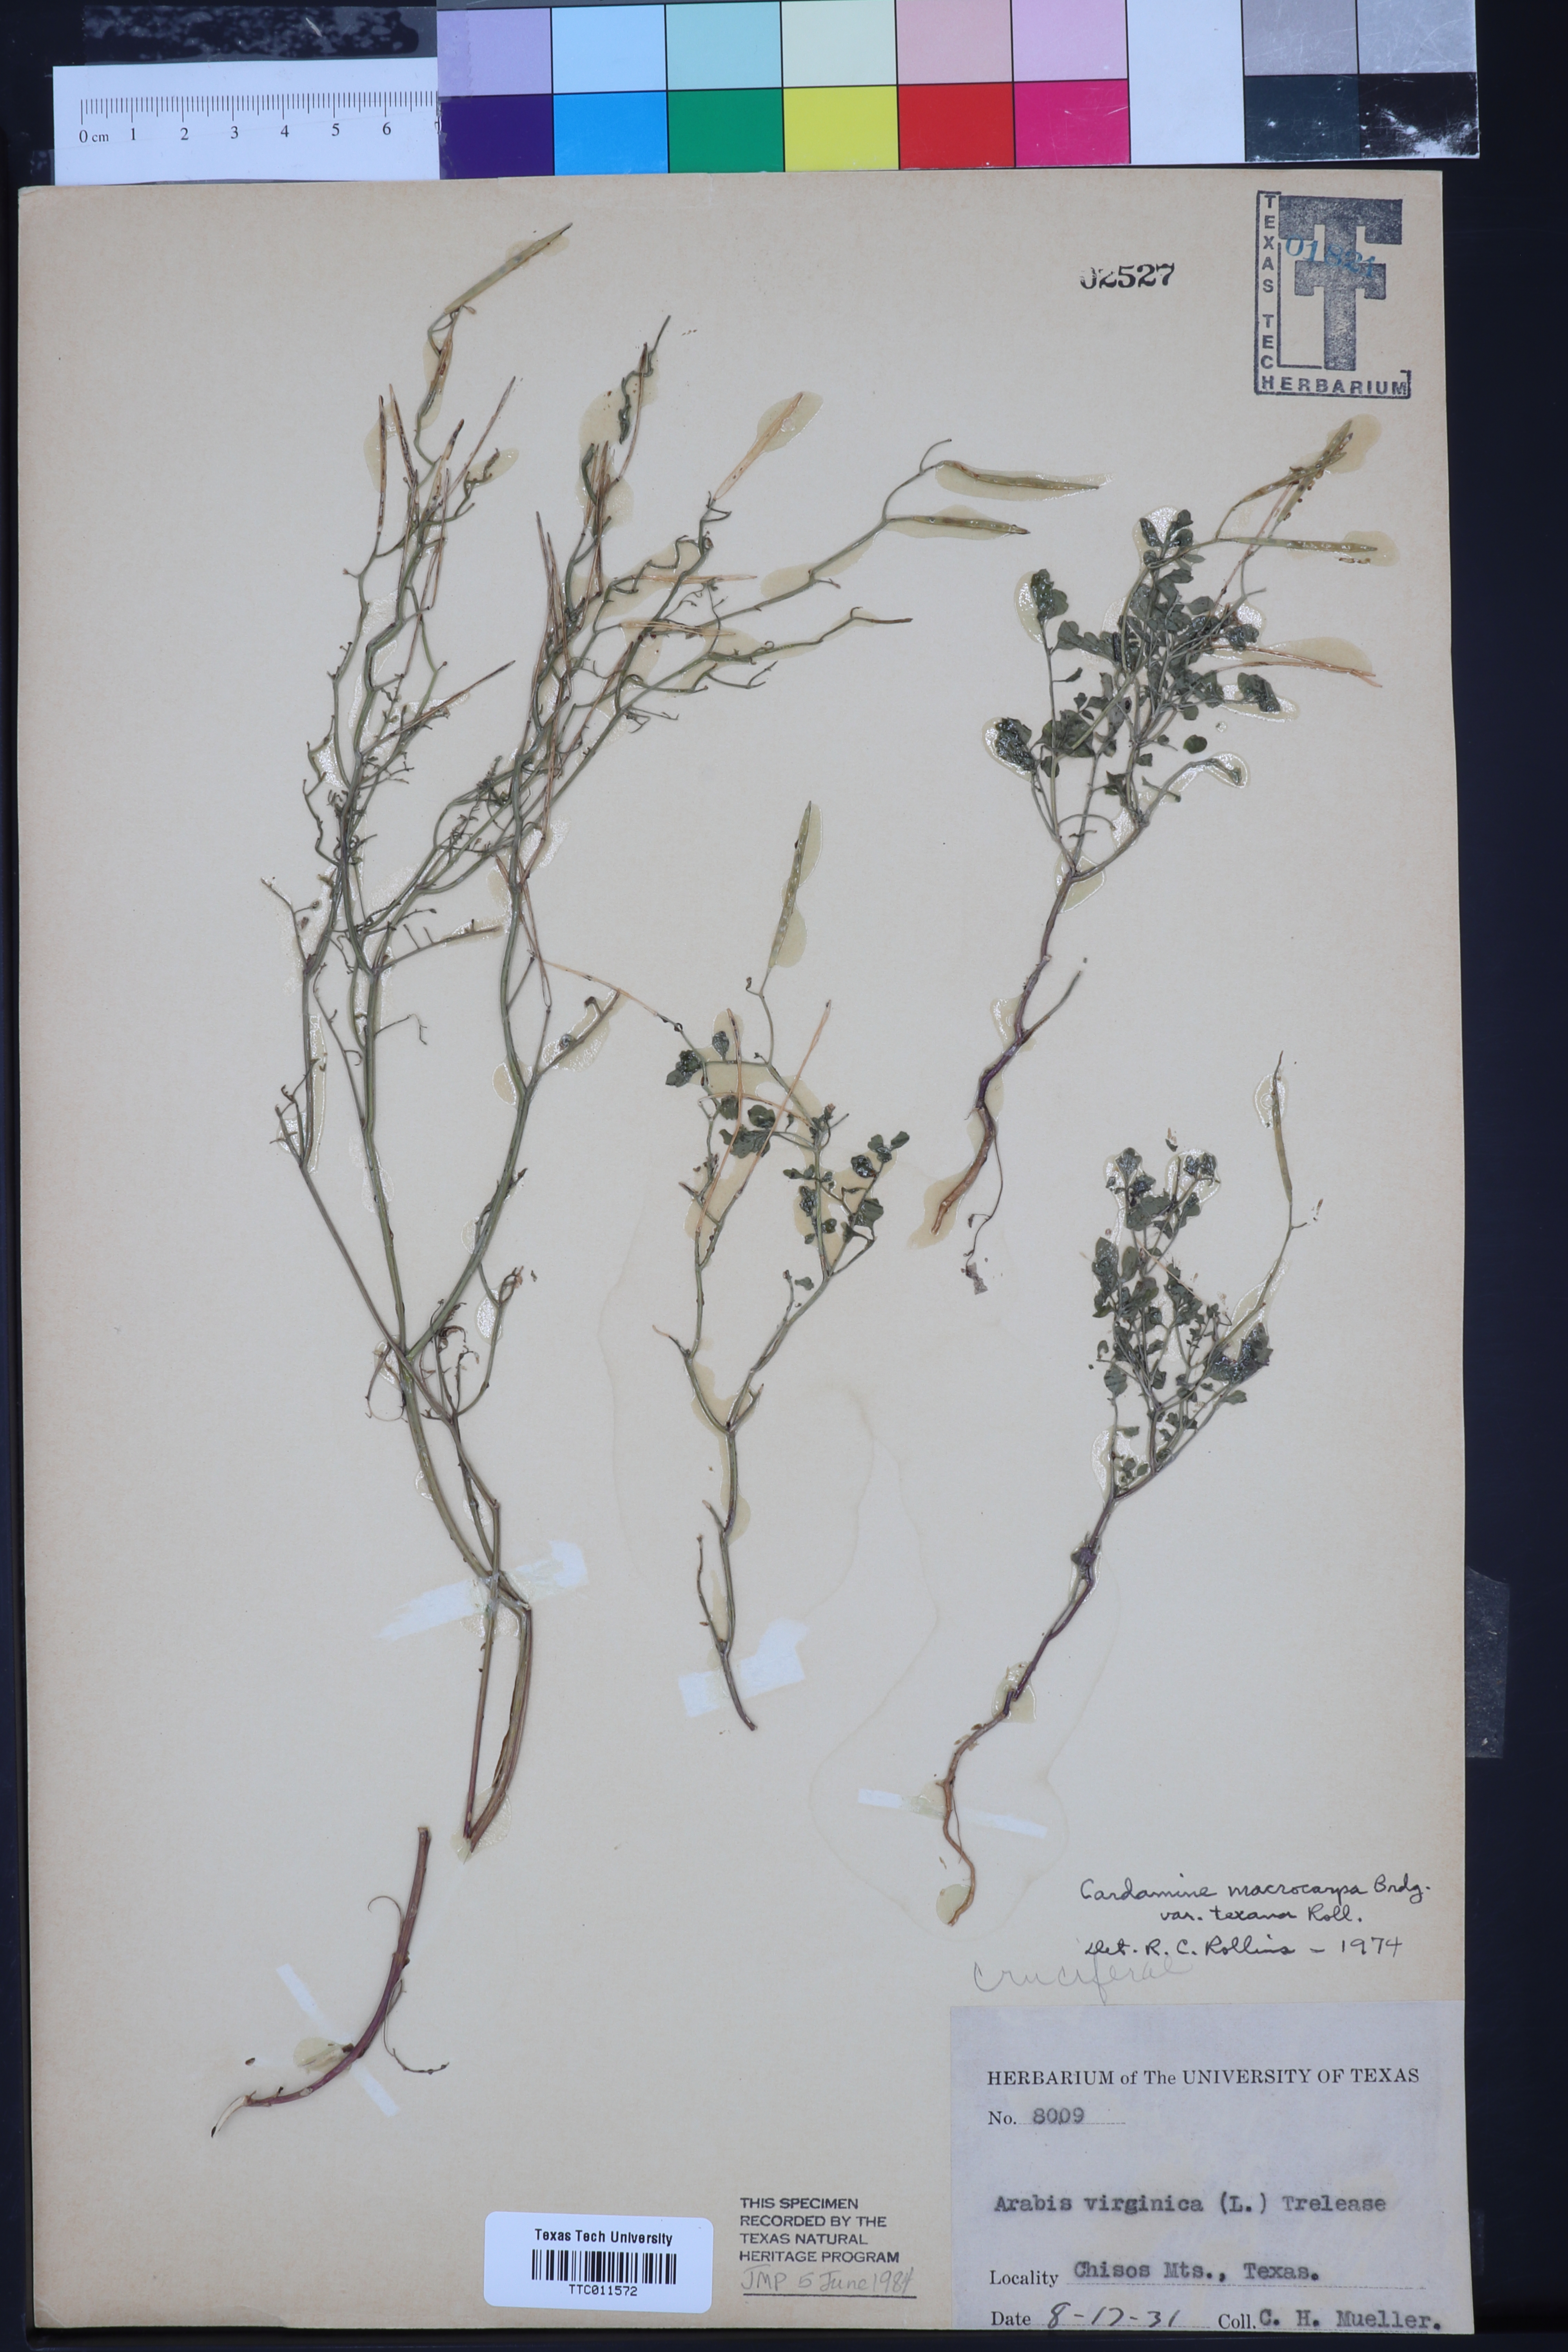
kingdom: Plantae
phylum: Tracheophyta
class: Magnoliopsida
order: Brassicales
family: Brassicaceae
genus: Cardamine
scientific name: Cardamine macrocarpa
